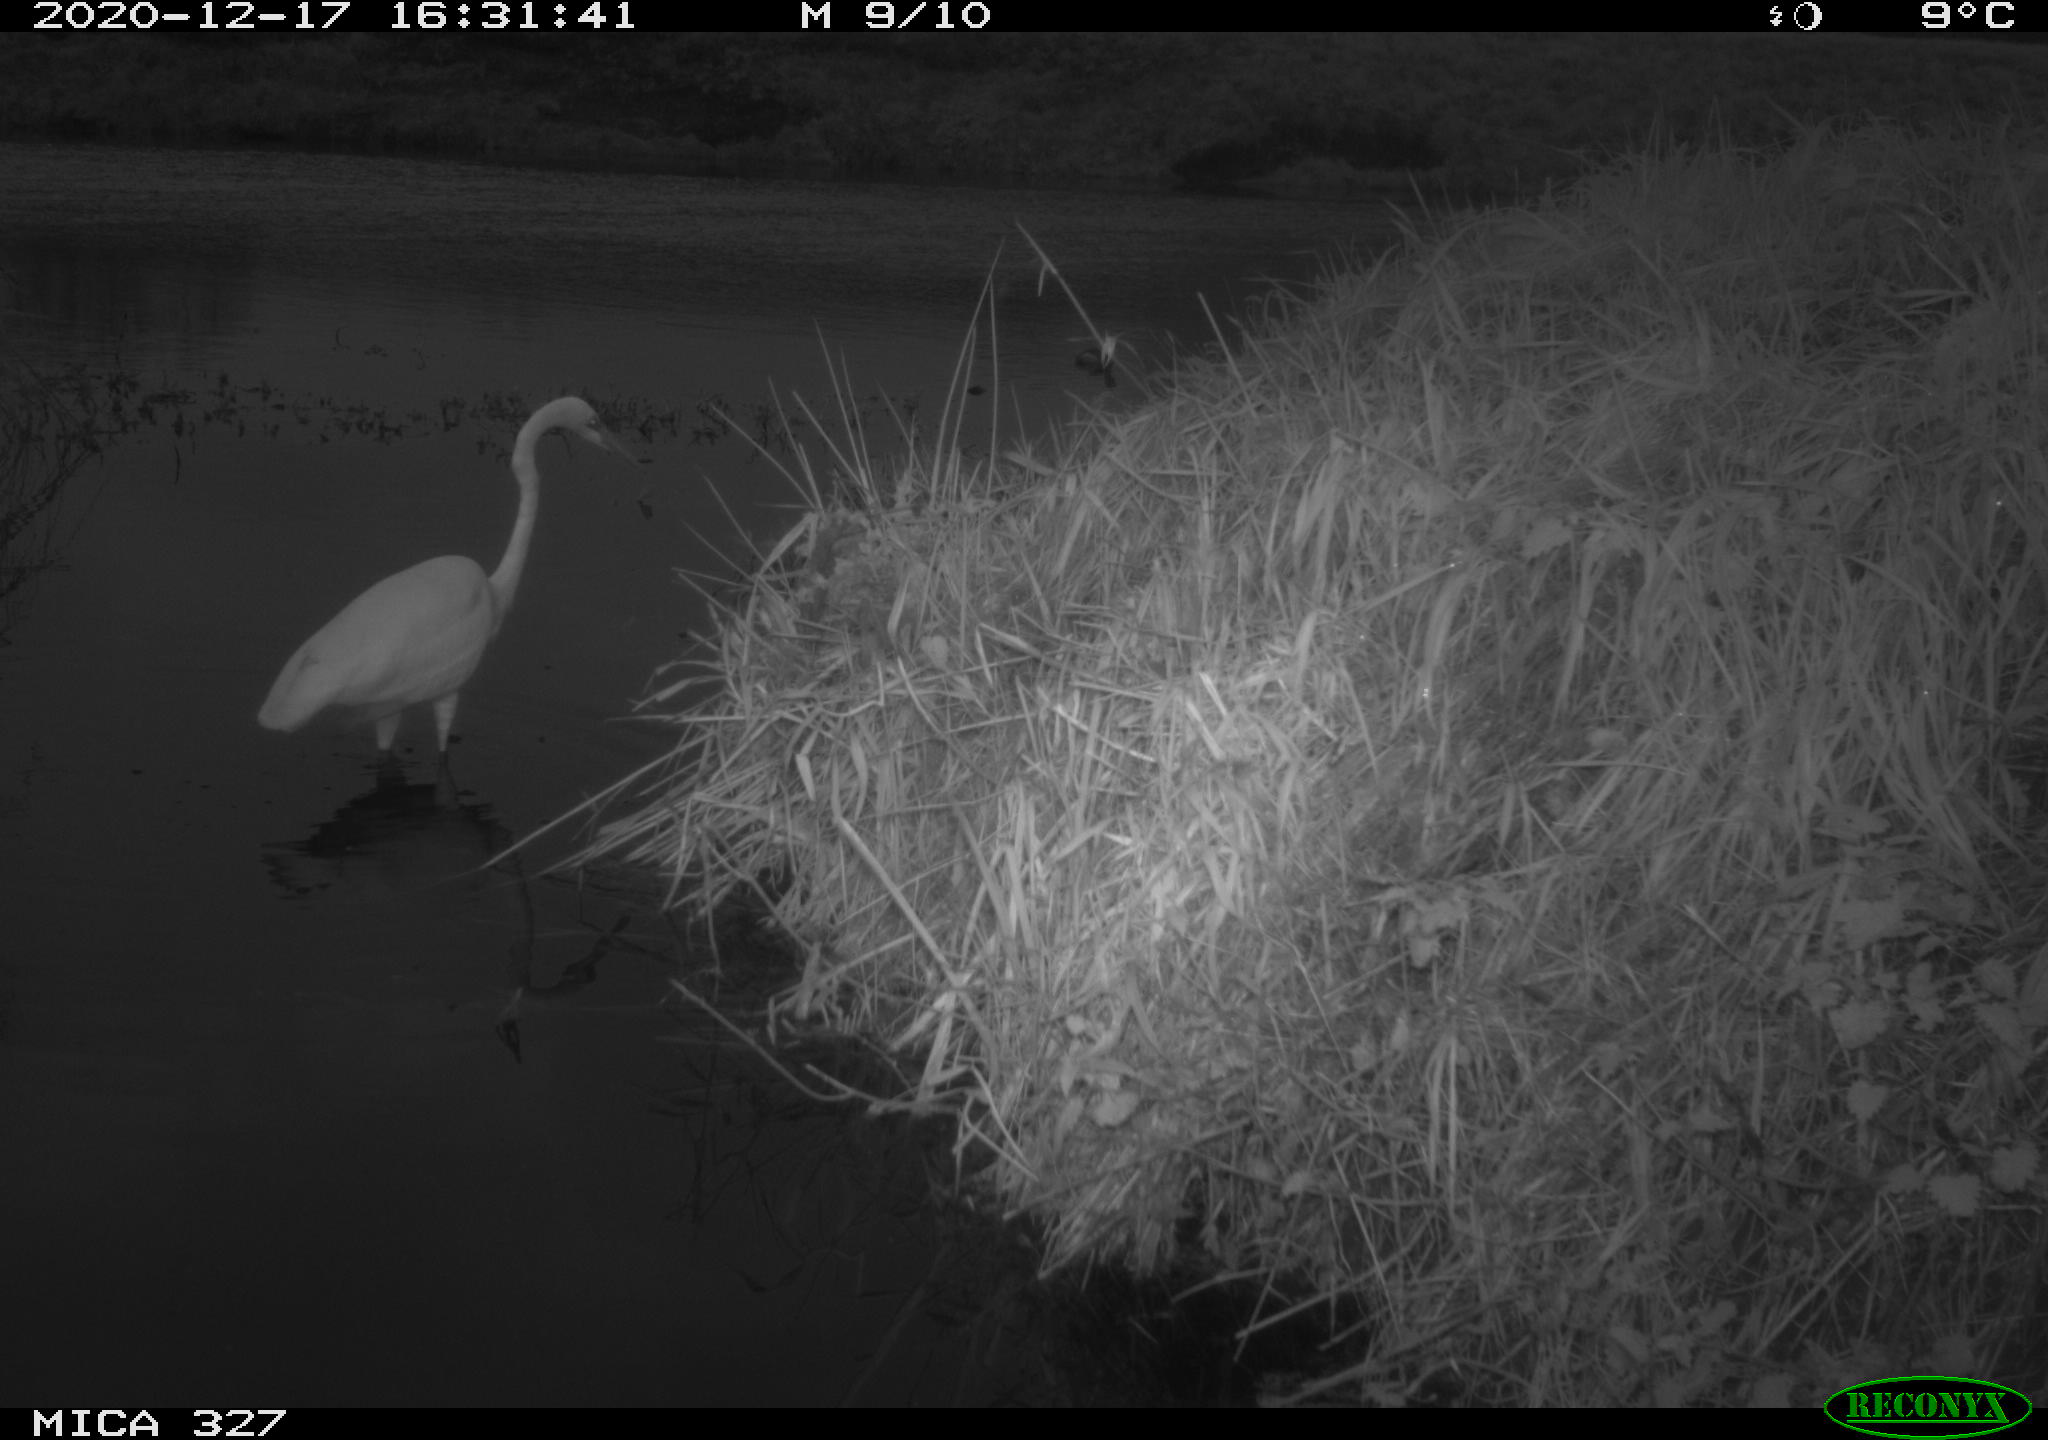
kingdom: Animalia
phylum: Chordata
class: Aves
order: Pelecaniformes
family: Ardeidae
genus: Ardea
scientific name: Ardea alba
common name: Great egret
